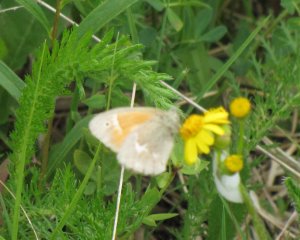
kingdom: Animalia
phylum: Arthropoda
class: Insecta
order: Lepidoptera
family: Nymphalidae
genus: Coenonympha
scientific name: Coenonympha tullia
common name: Large Heath
